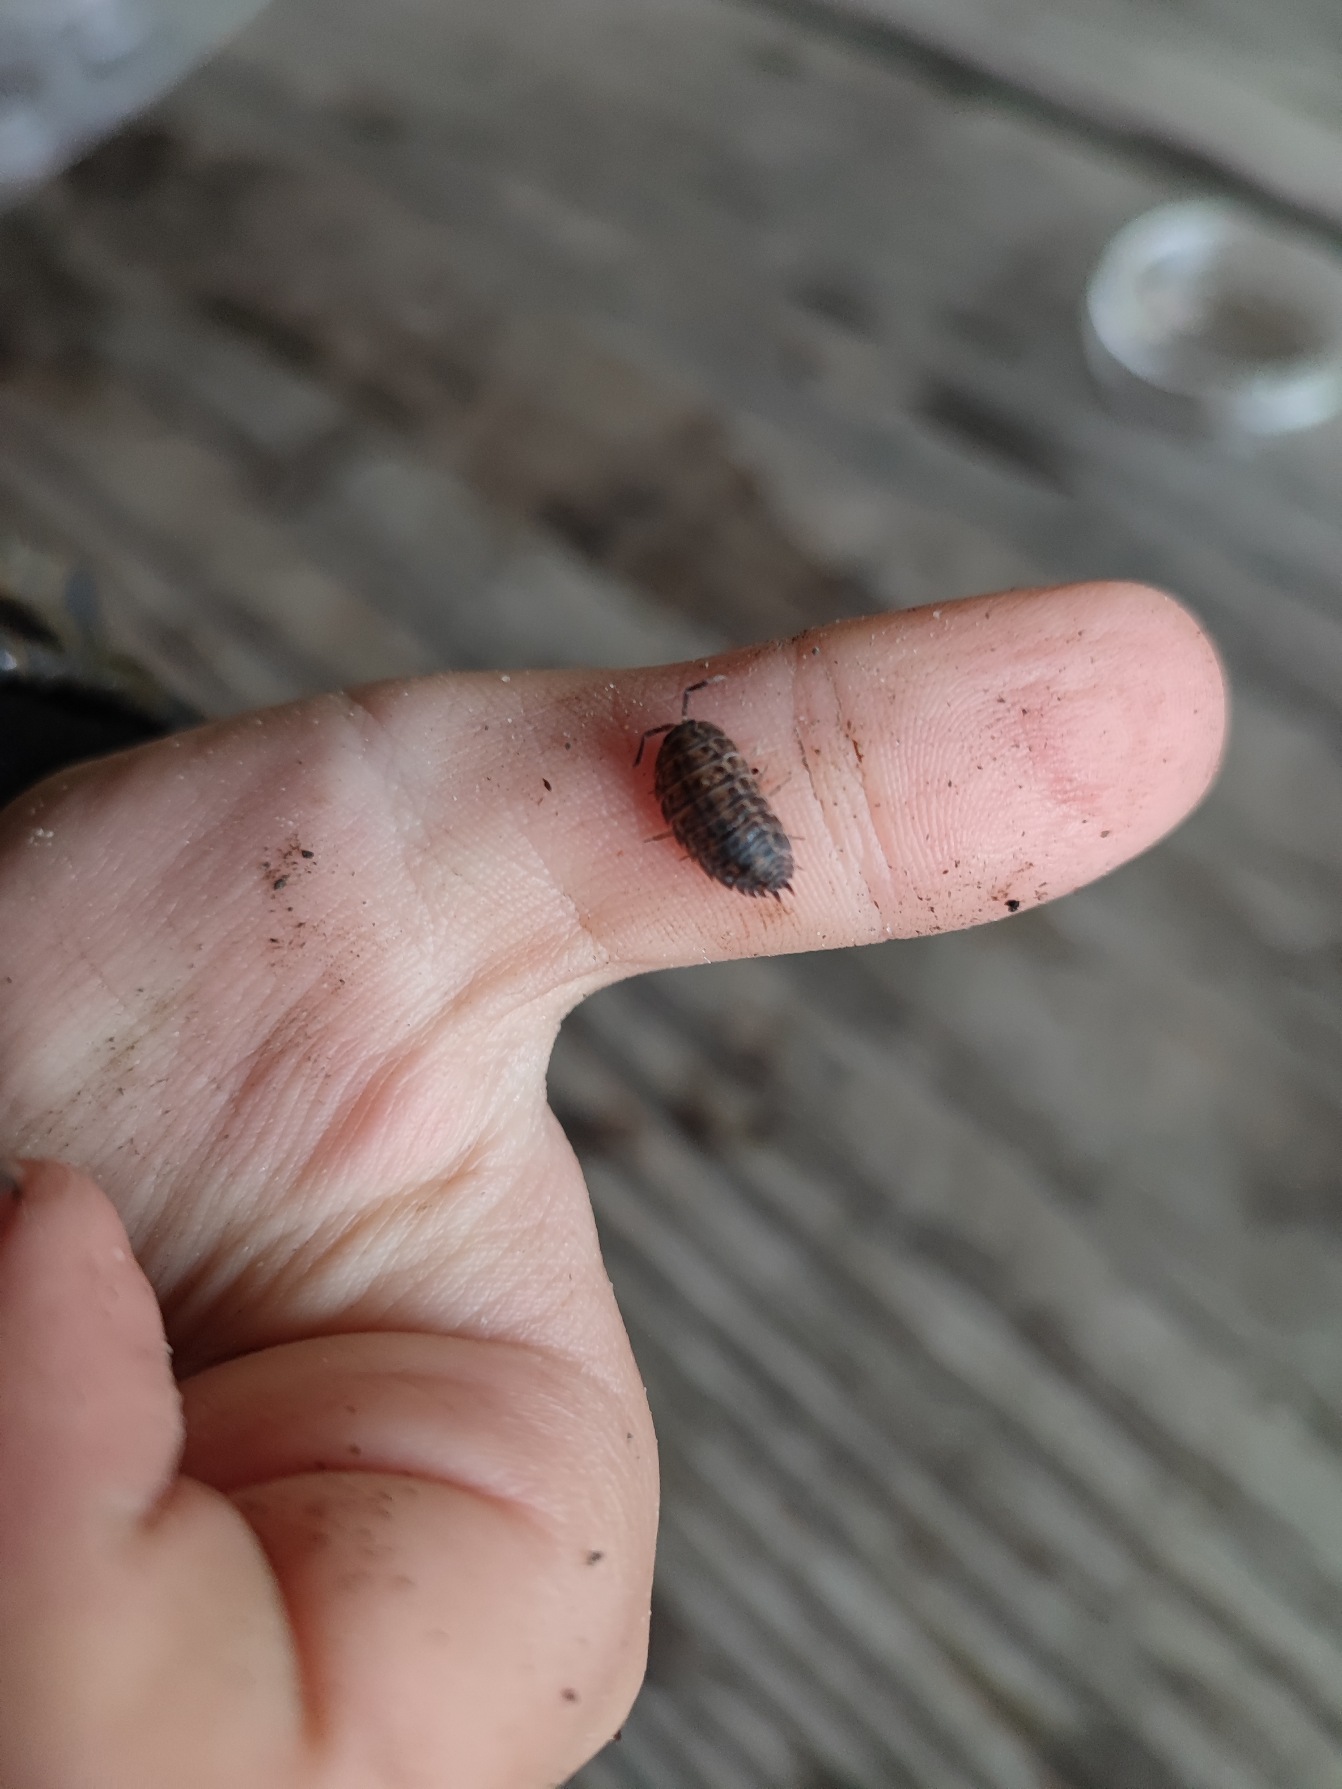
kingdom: Animalia
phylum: Arthropoda
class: Malacostraca
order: Isopoda
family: Porcellionidae
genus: Porcellio
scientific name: Porcellio scaber
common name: Grå bænkebider
